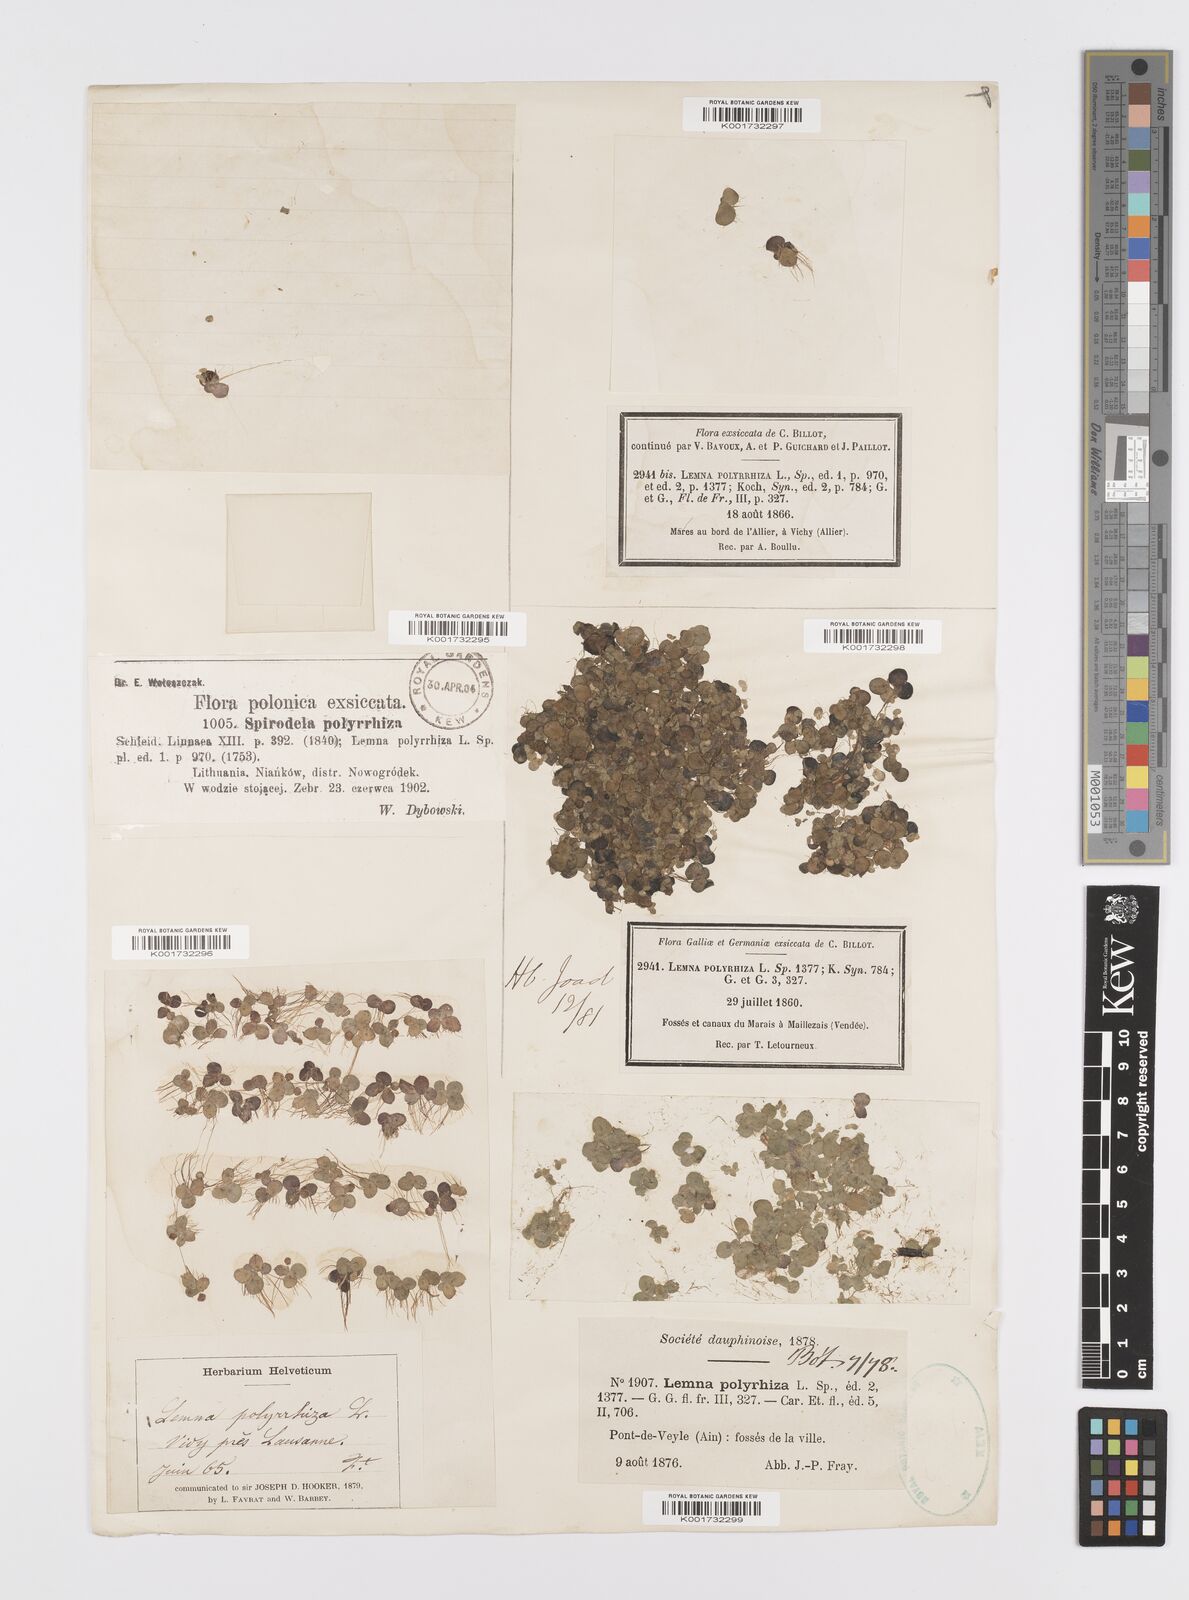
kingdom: Plantae
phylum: Tracheophyta
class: Liliopsida
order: Alismatales
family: Araceae
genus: Spirodela
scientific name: Spirodela polyrhiza
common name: Great duckweed
